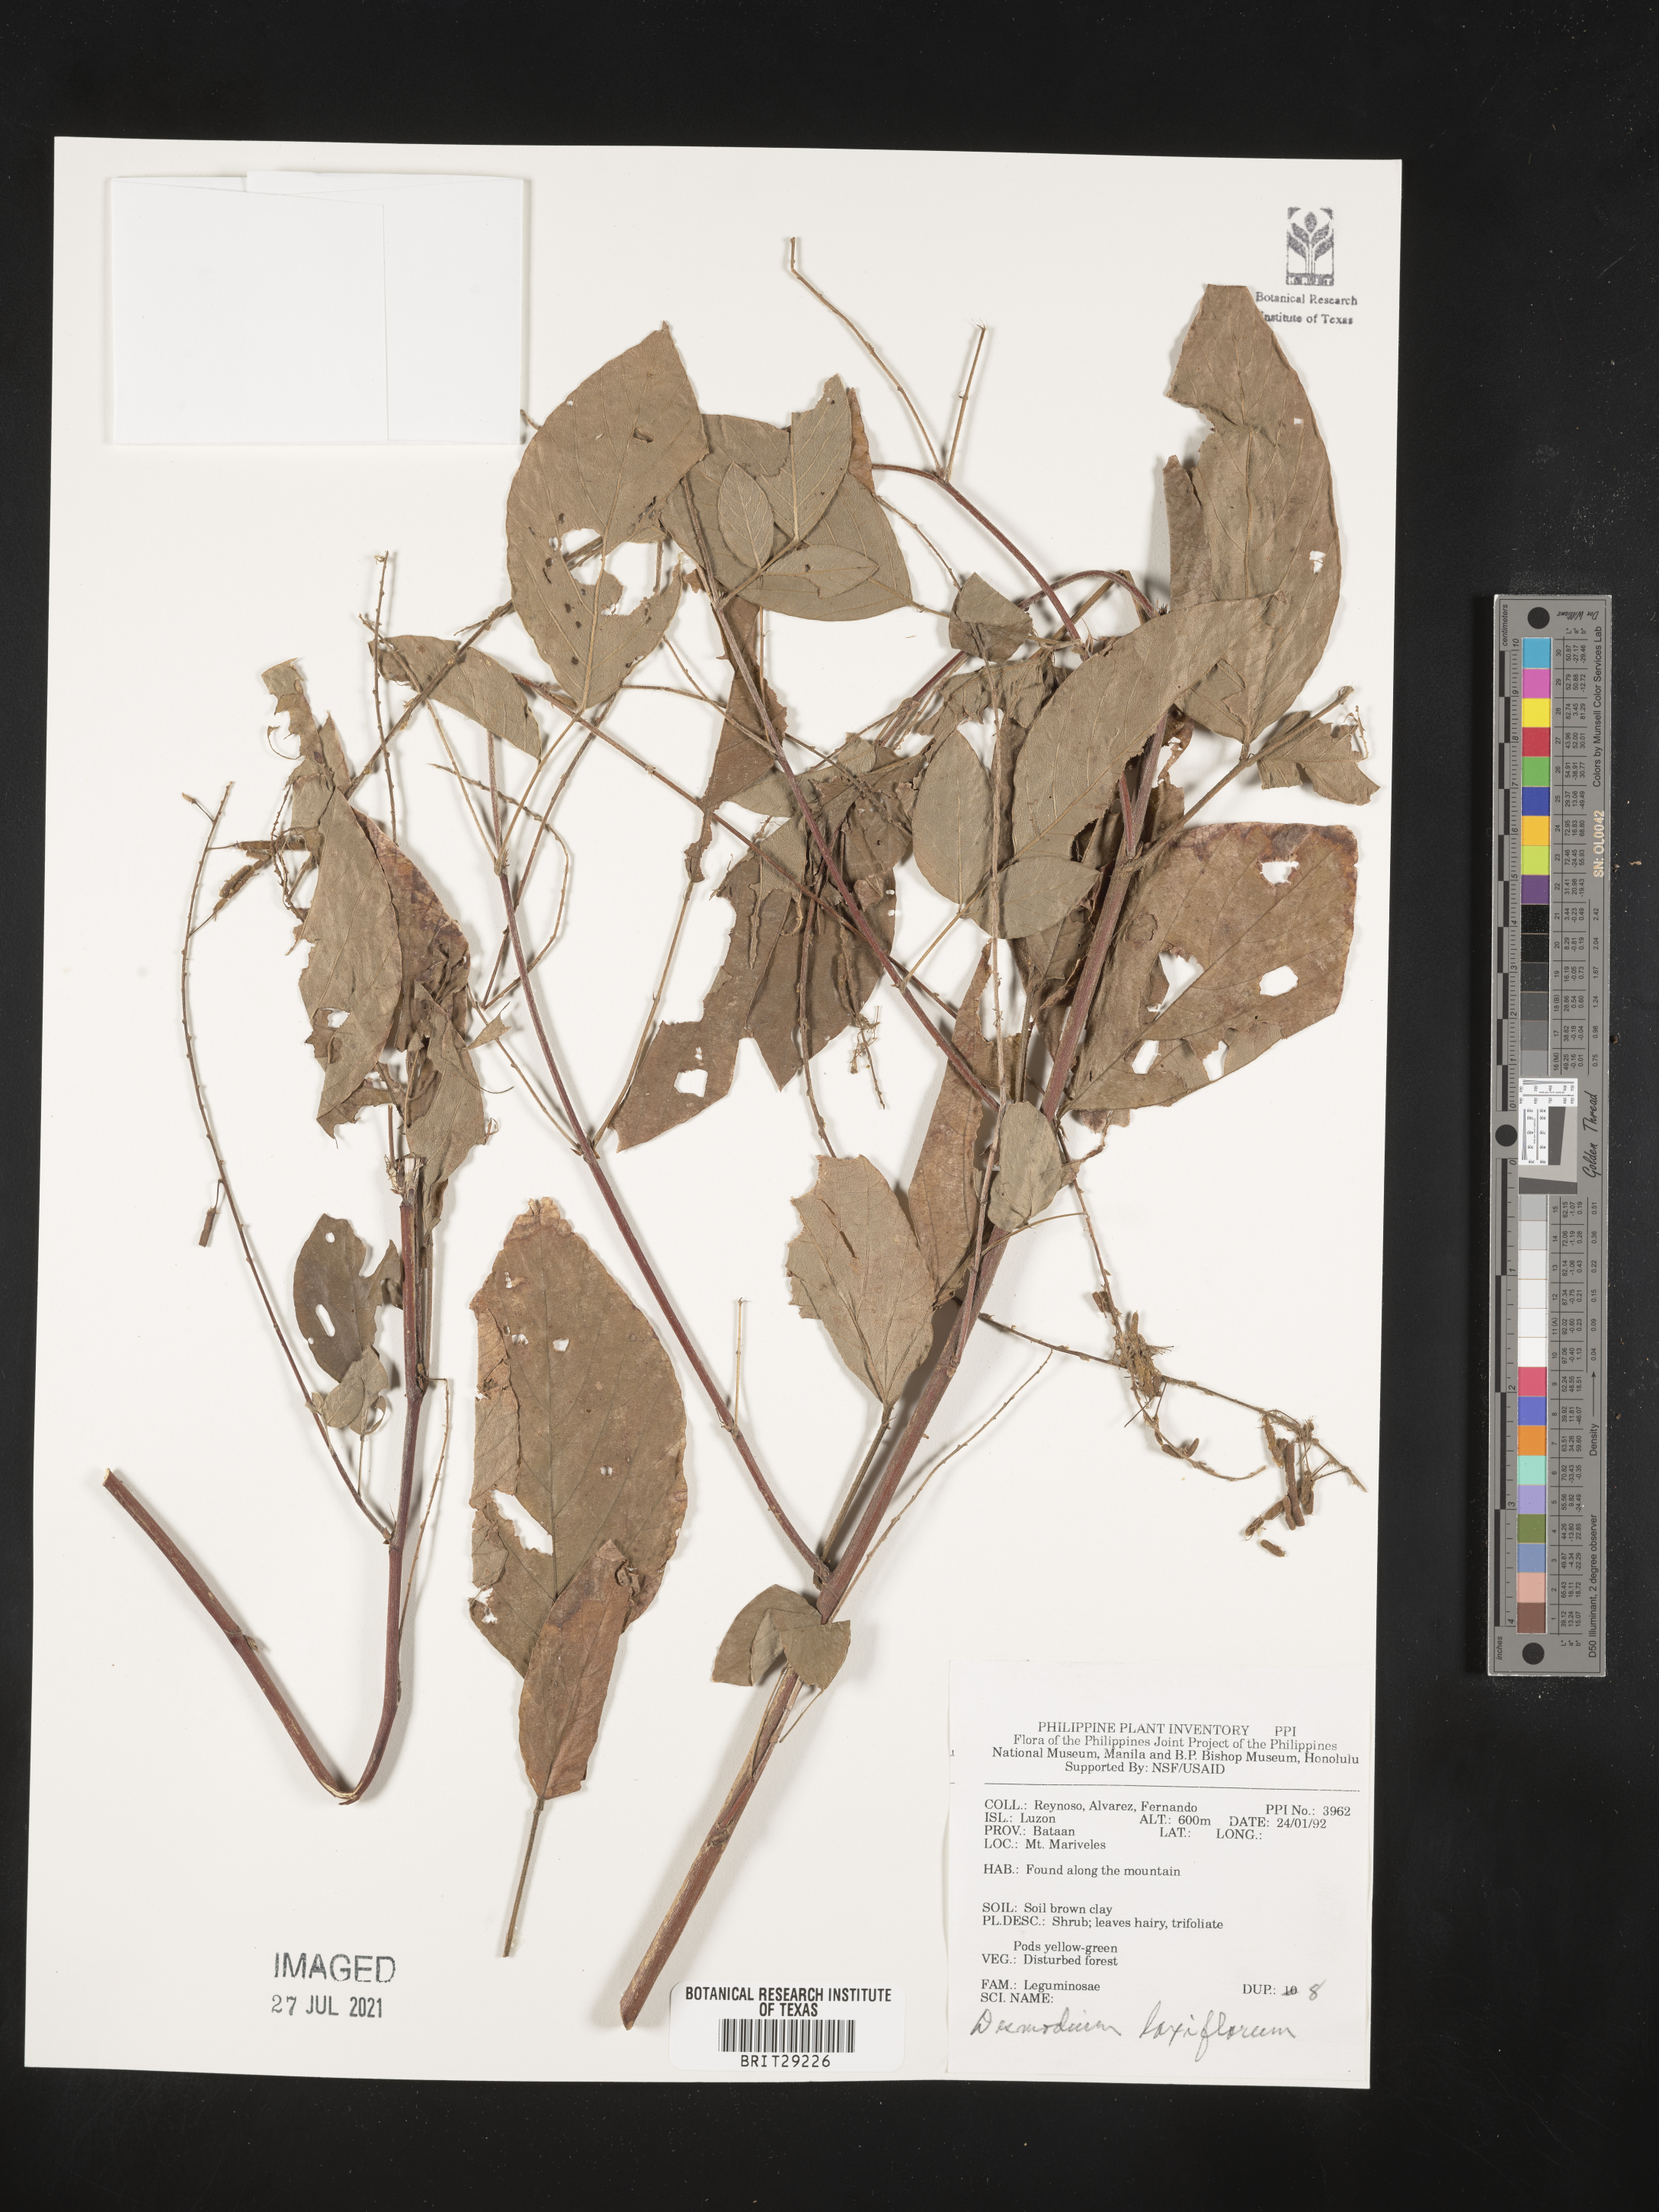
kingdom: Plantae
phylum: Tracheophyta
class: Magnoliopsida
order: Fabales
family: Fabaceae
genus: Sohmaea
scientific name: Sohmaea laxiflora
